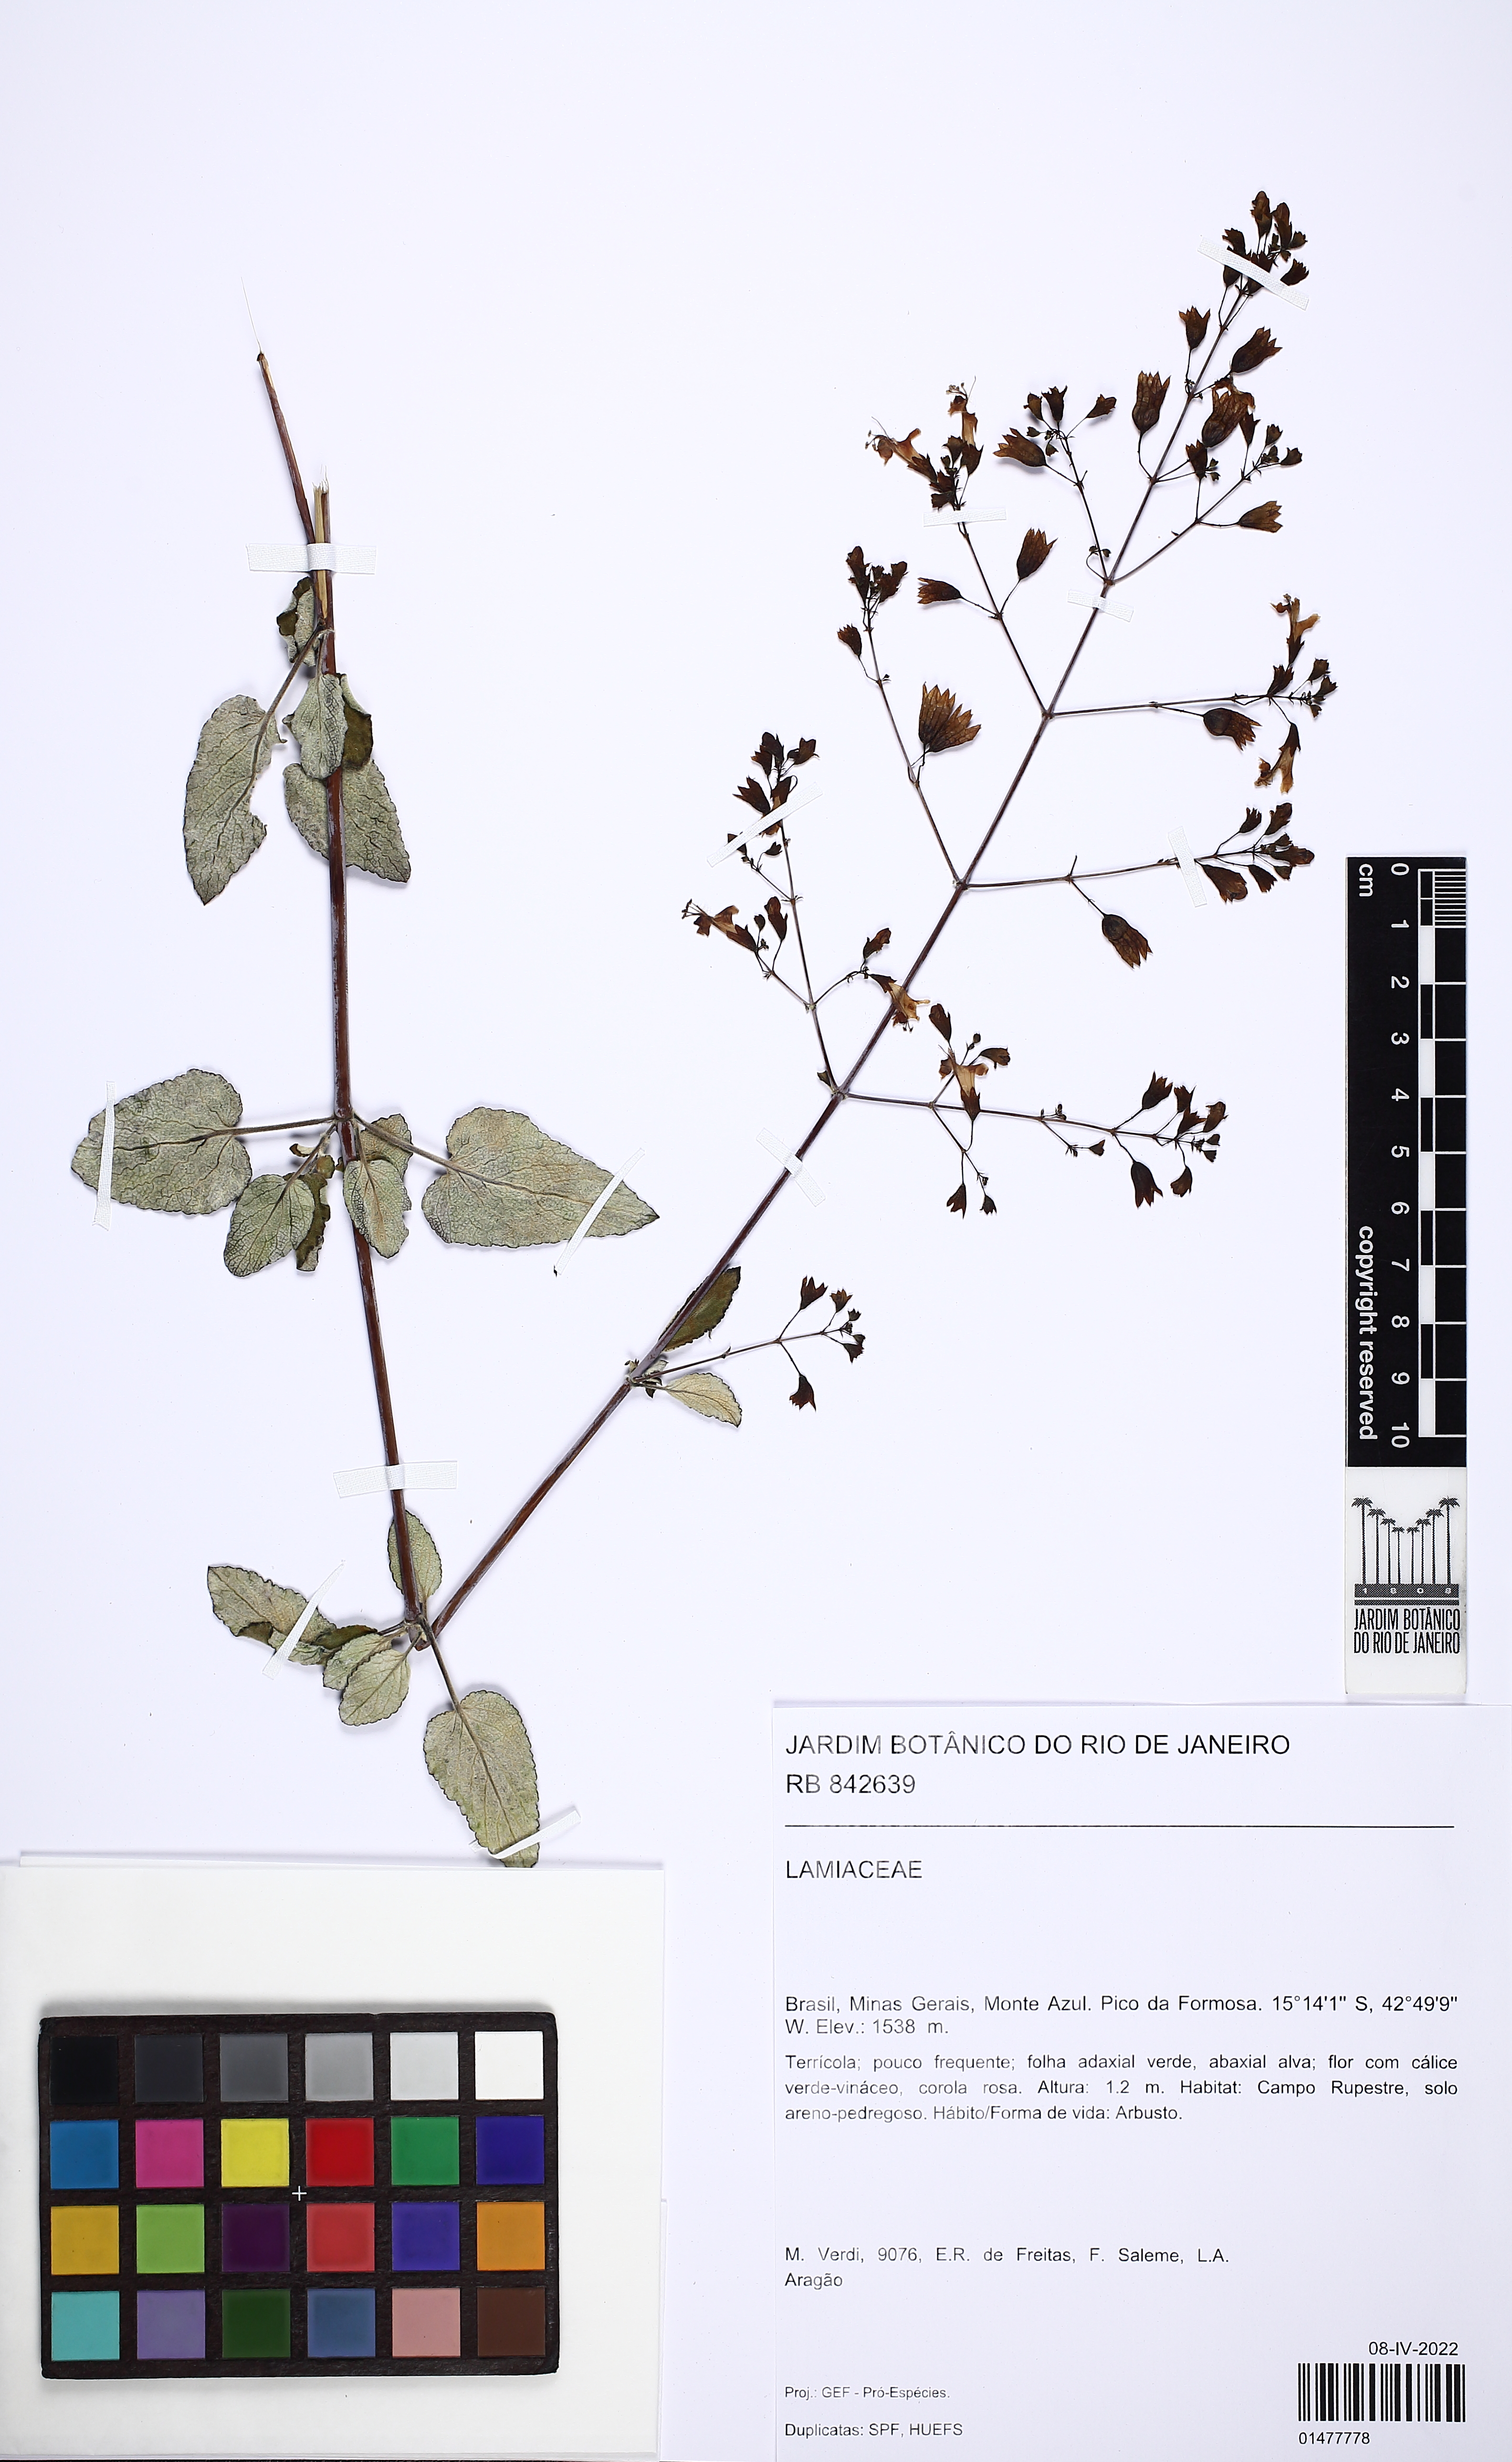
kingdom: Plantae
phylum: Tracheophyta
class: Magnoliopsida
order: Lamiales
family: Lamiaceae
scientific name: Lamiaceae
